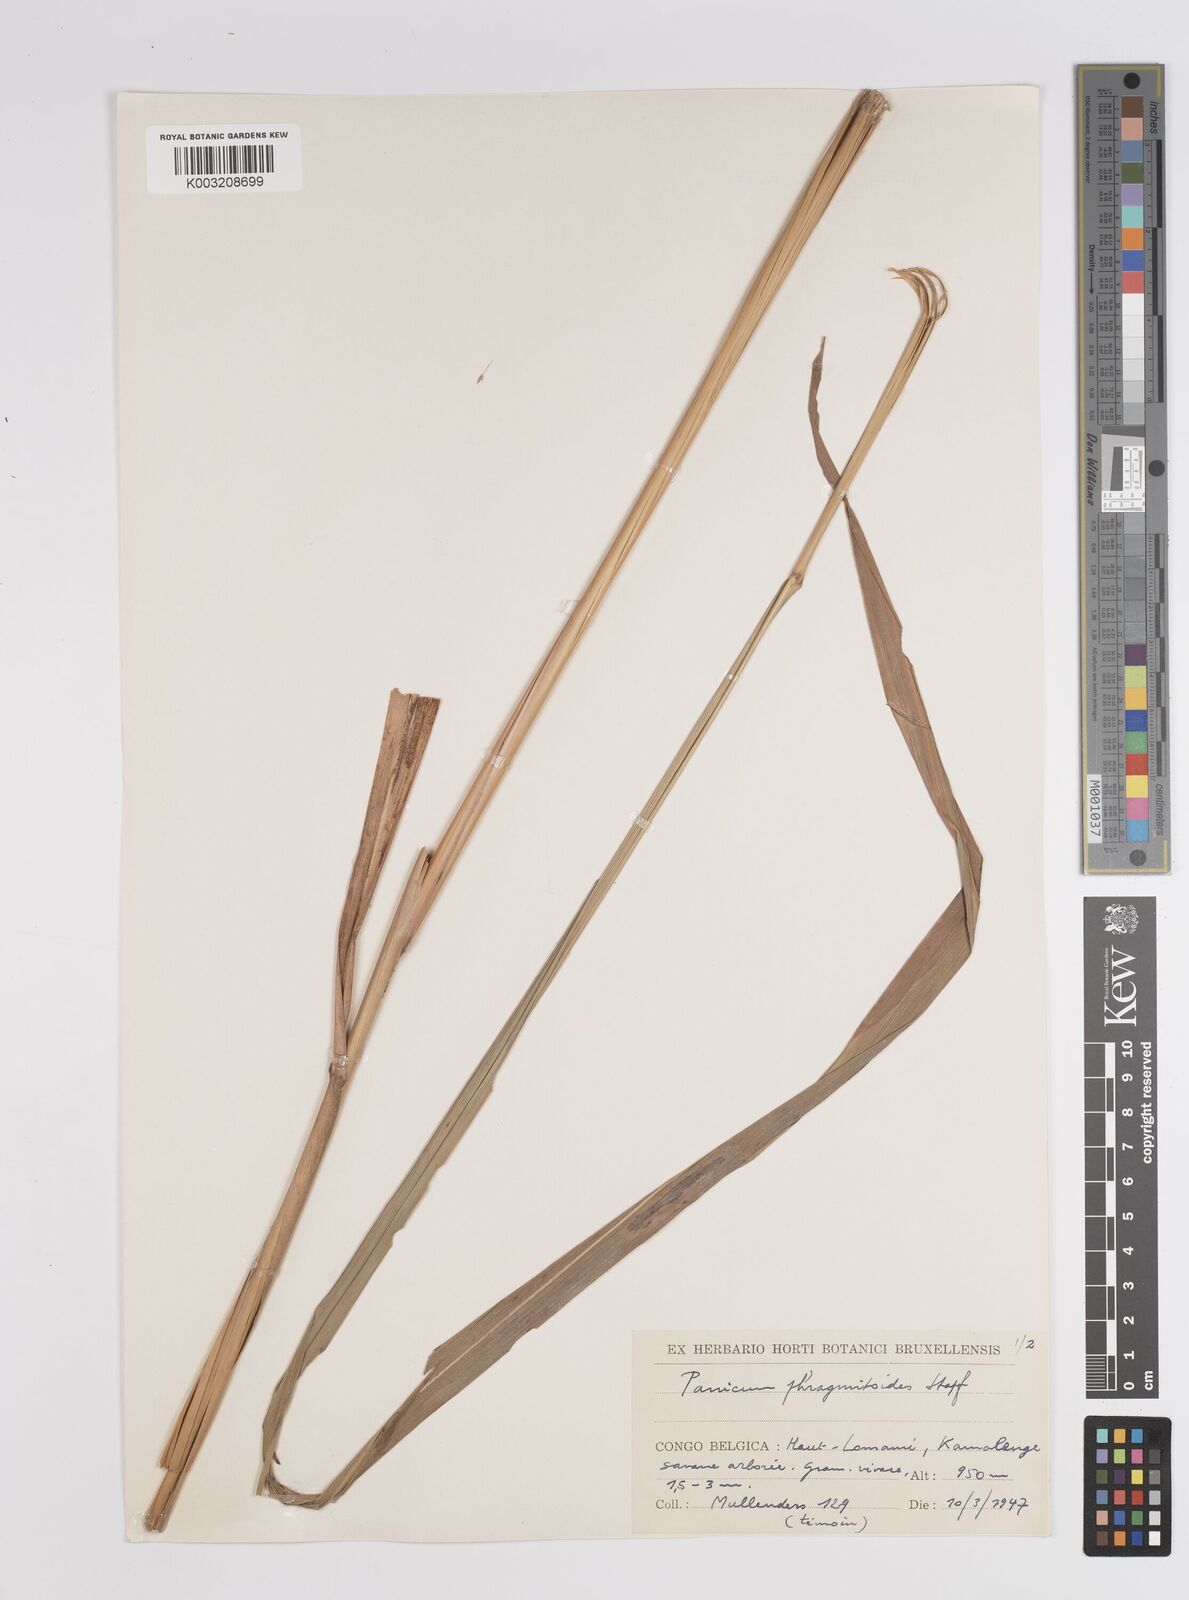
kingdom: Plantae
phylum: Tracheophyta
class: Liliopsida
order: Poales
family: Poaceae
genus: Panicum
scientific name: Panicum phragmitoides
